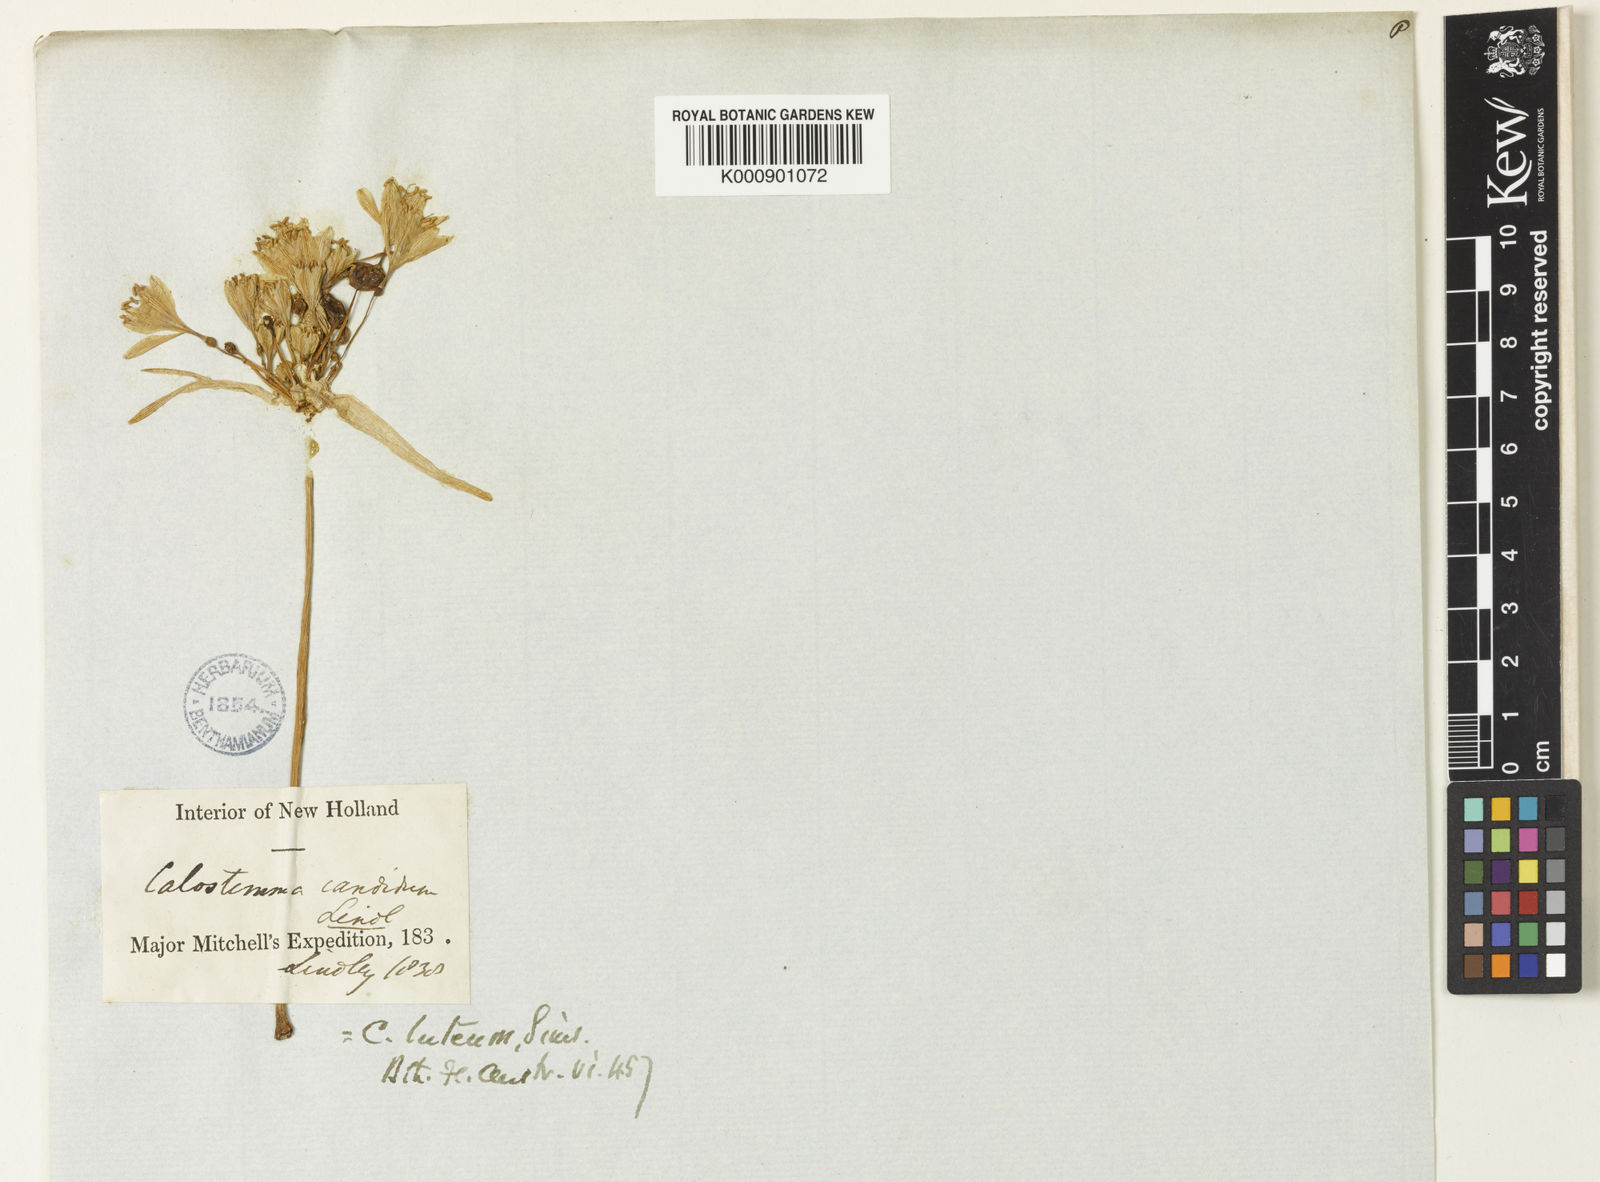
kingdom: Plantae
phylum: Tracheophyta
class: Liliopsida
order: Asparagales
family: Amaryllidaceae
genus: Calostemma
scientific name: Calostemma luteum
